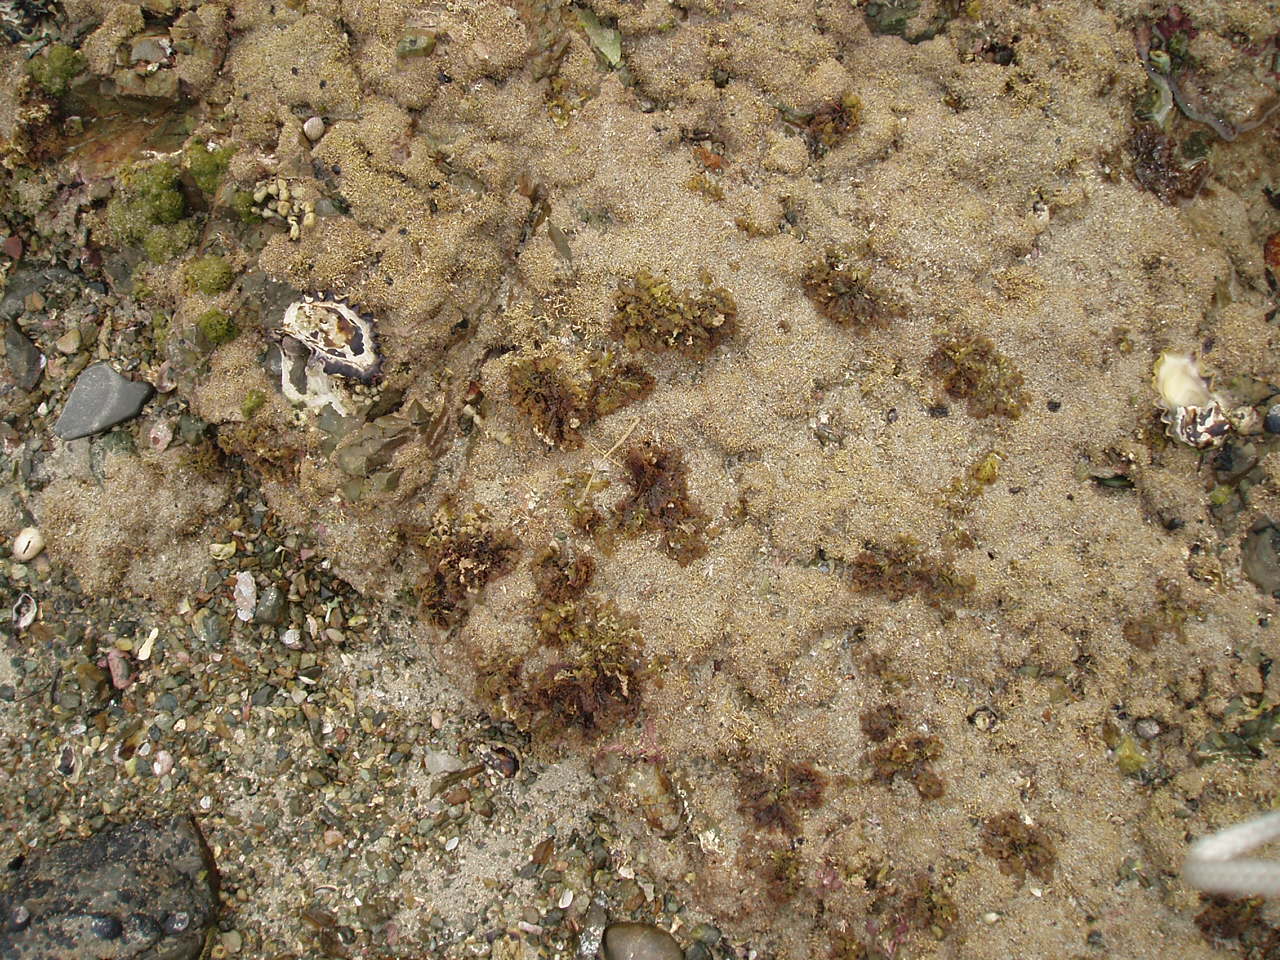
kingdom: Plantae
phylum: Rhodophyta
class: Florideophyceae
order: Ceramiales
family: Rhodomelaceae
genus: Laurencia
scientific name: Laurencia distichophylla
